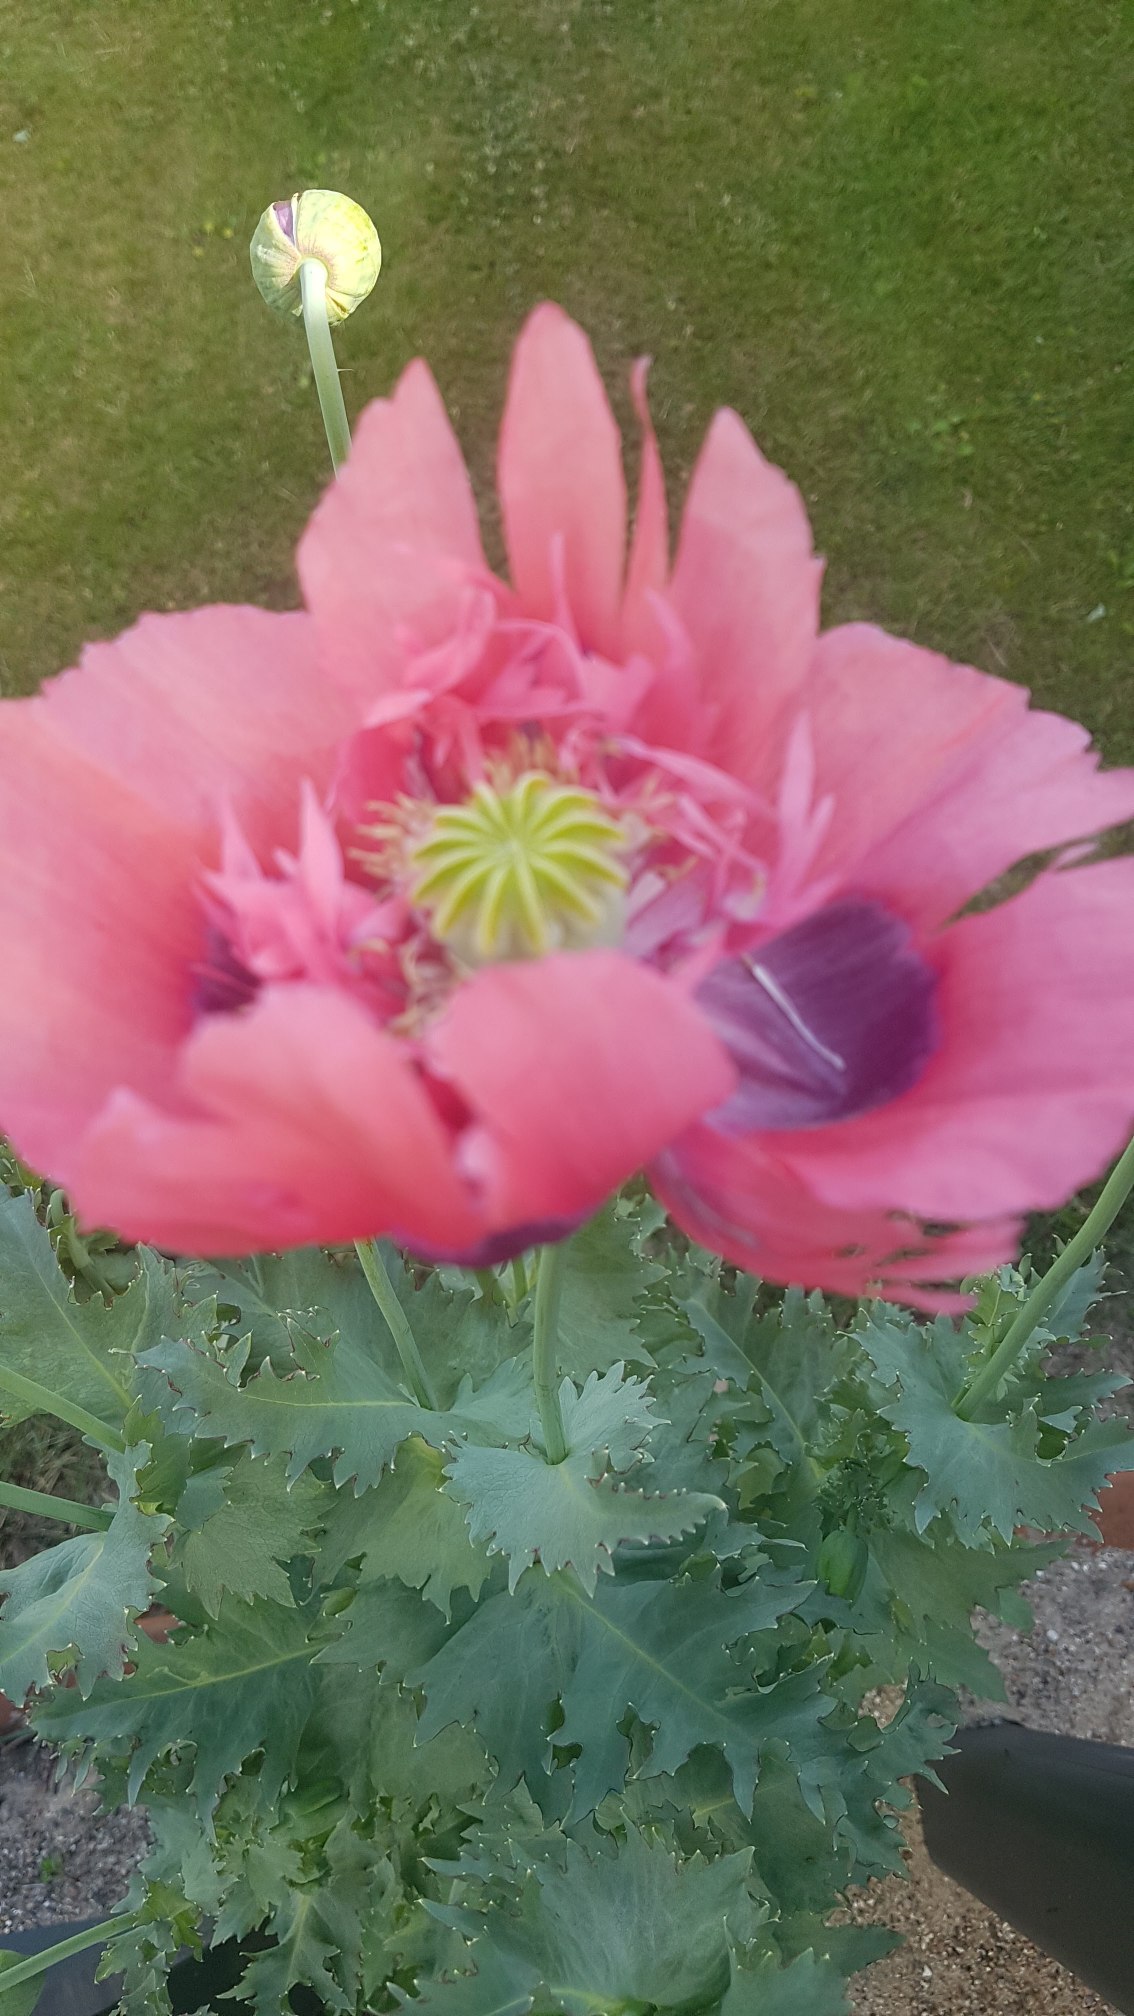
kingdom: Plantae
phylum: Tracheophyta
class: Magnoliopsida
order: Ranunculales
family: Papaveraceae
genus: Papaver
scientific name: Papaver somniferum
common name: Opium-valmue
